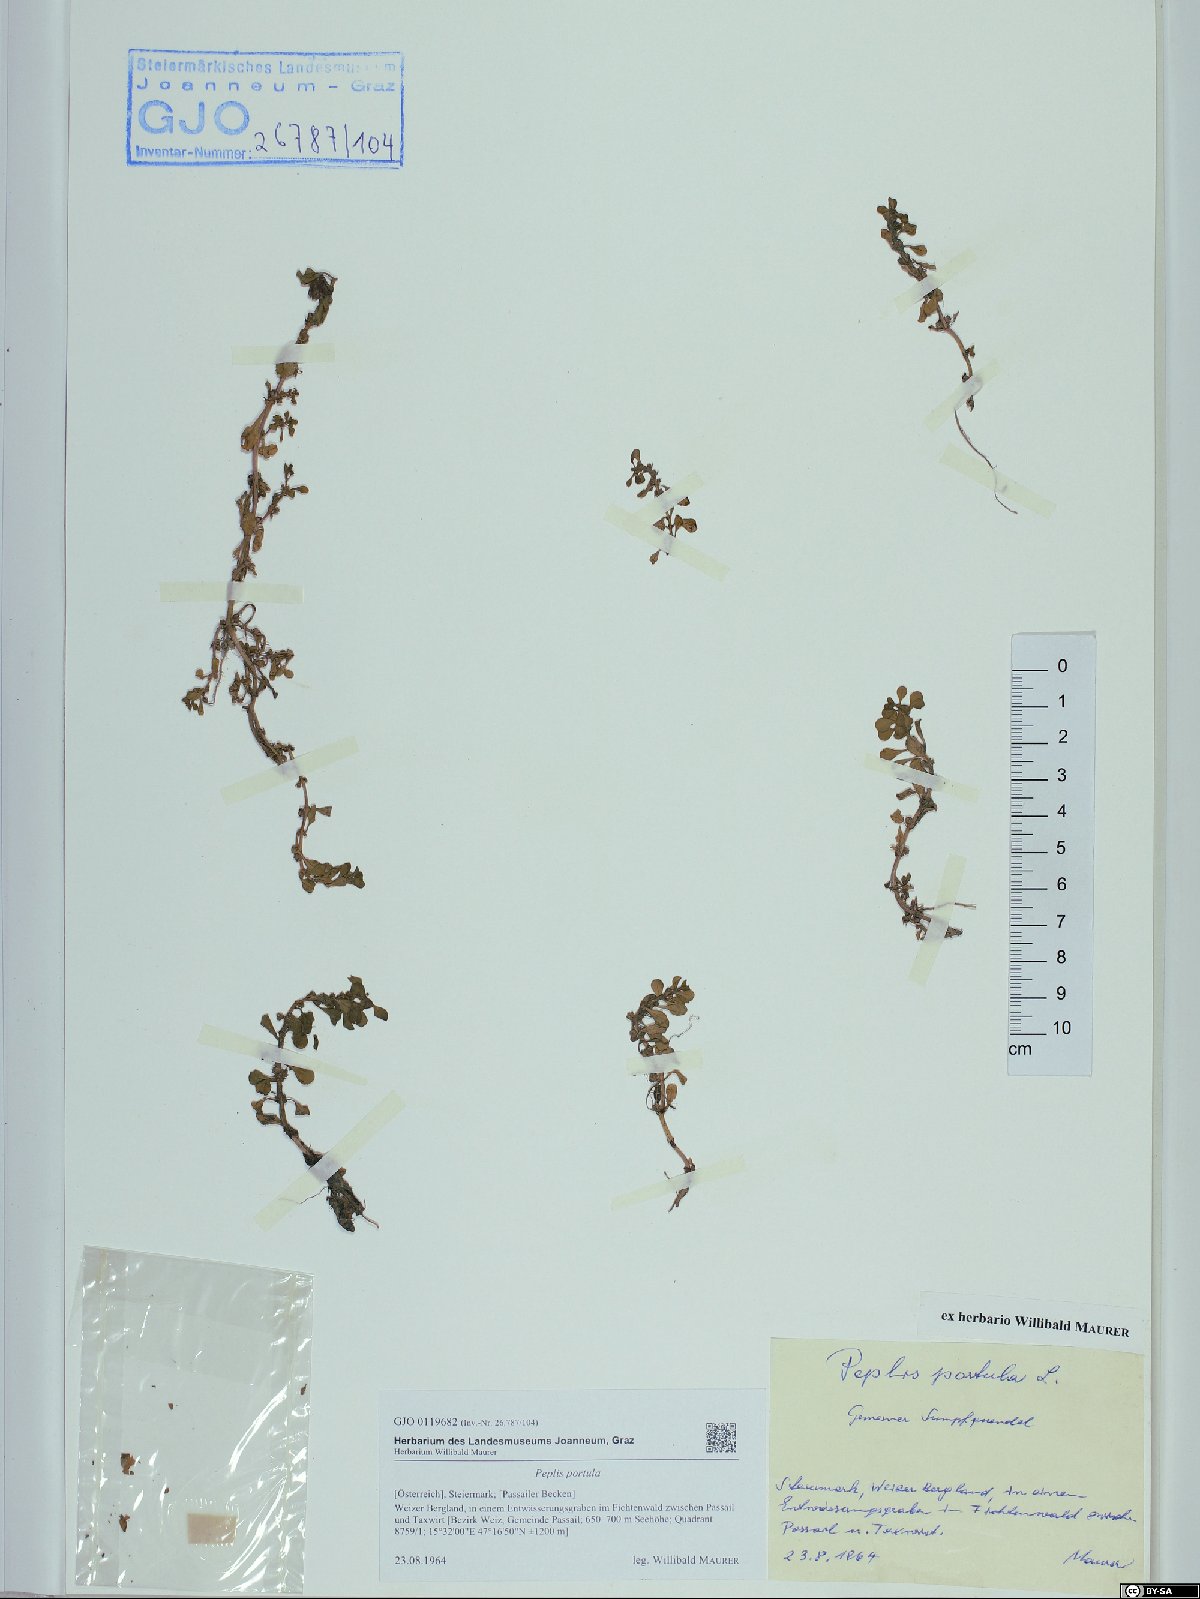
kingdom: Plantae
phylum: Tracheophyta
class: Magnoliopsida
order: Myrtales
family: Lythraceae
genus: Lythrum
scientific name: Lythrum portula
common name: Water purslane
